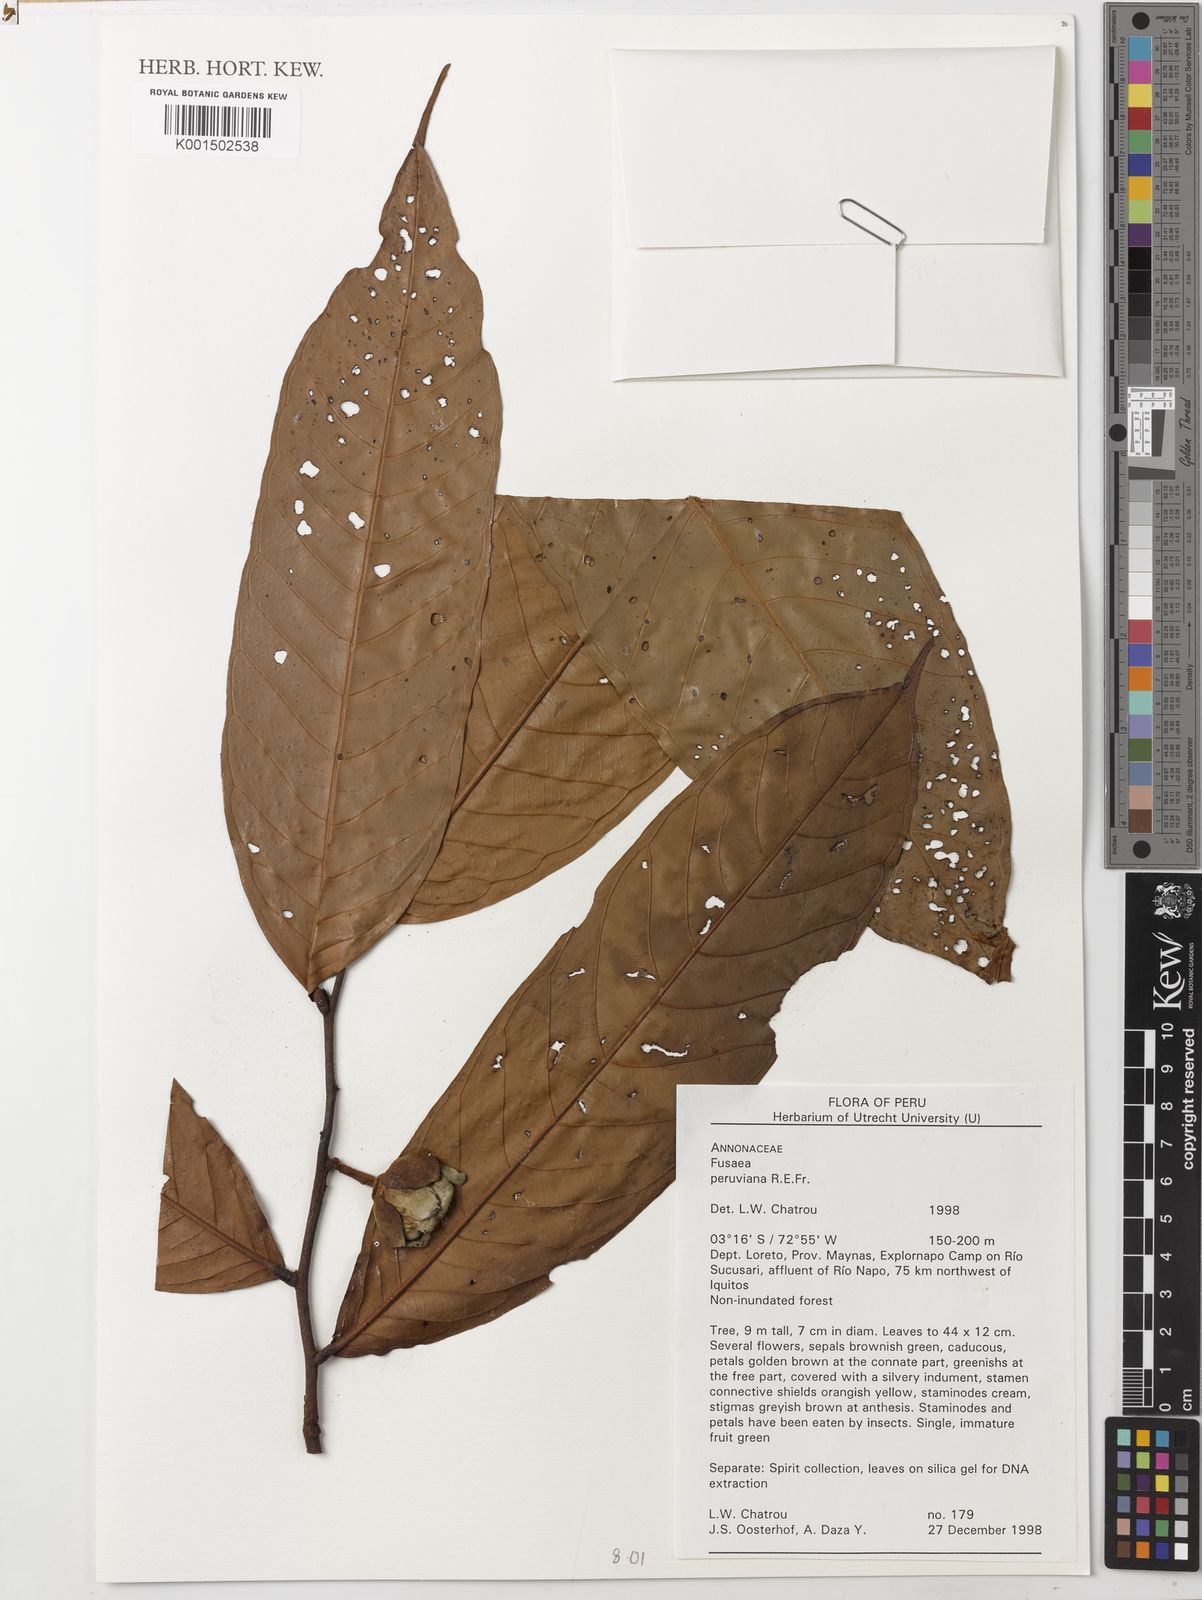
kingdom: Plantae
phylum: Tracheophyta
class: Magnoliopsida
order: Magnoliales
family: Annonaceae
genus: Fusaea
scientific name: Fusaea peruviana
